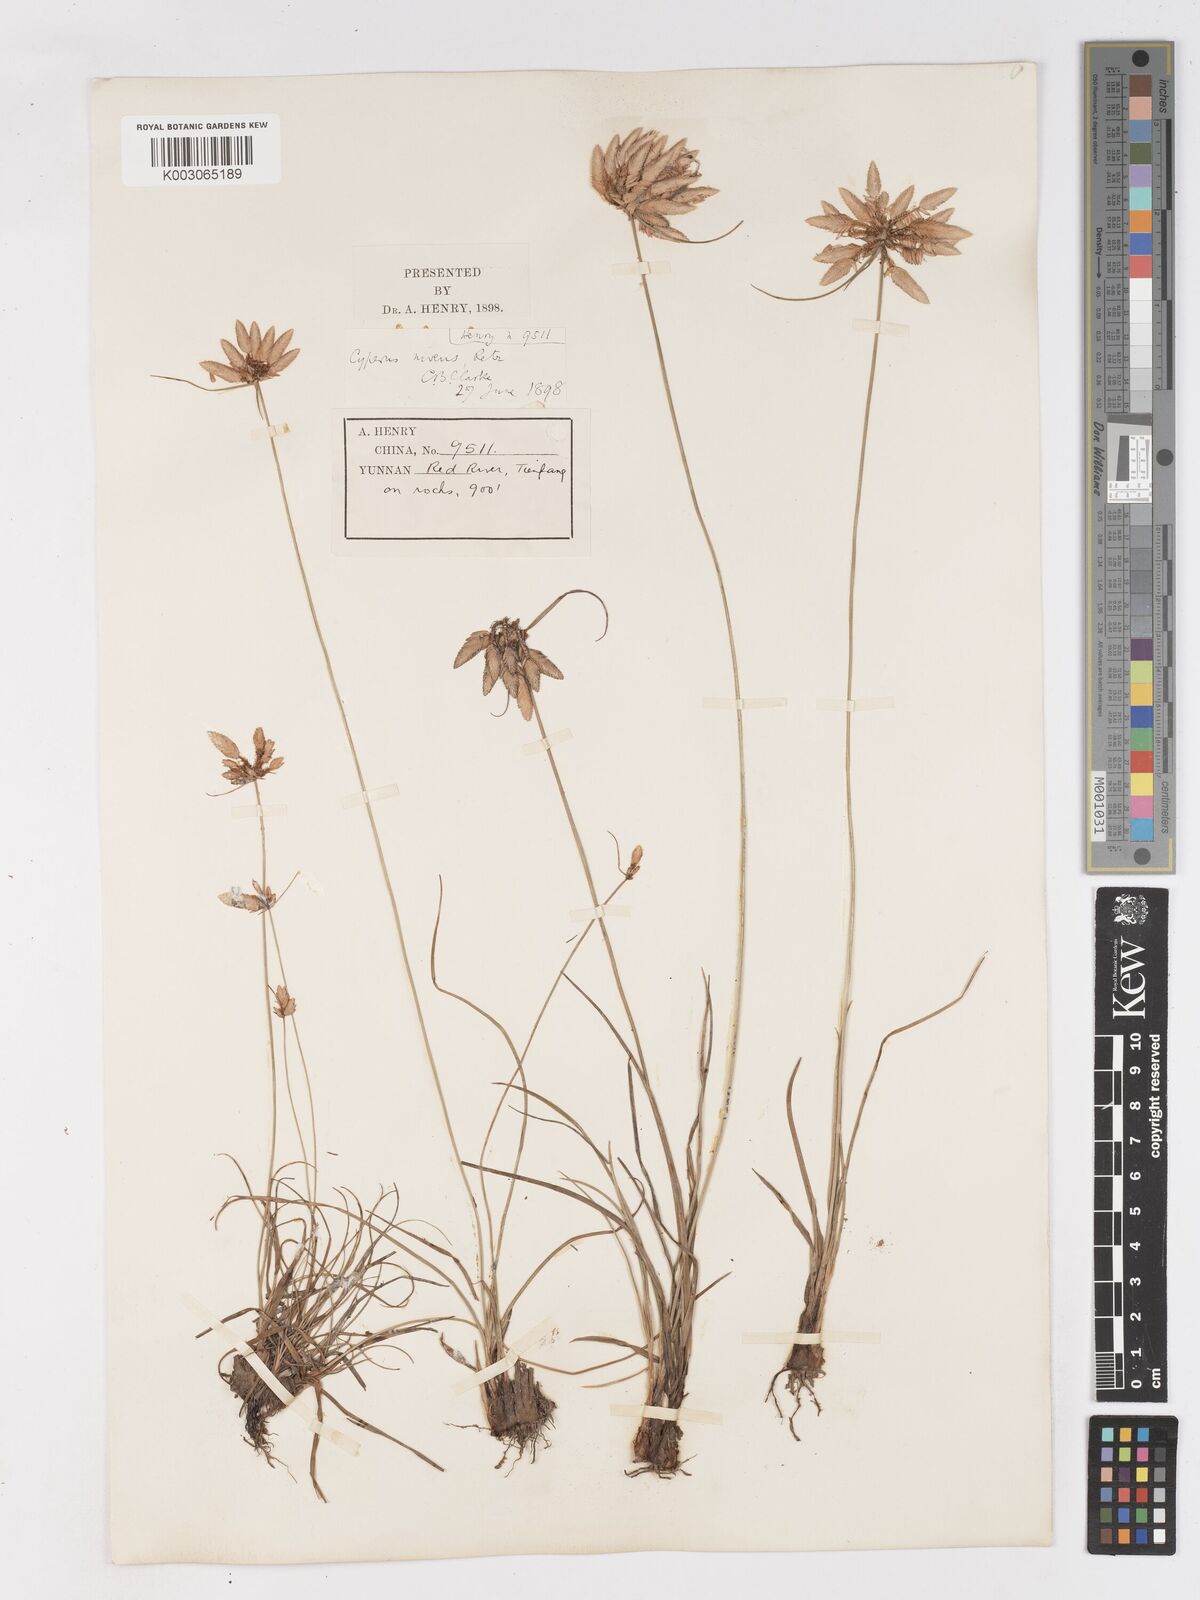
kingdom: Plantae
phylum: Tracheophyta
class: Liliopsida
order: Poales
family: Cyperaceae
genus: Cyperus
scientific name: Cyperus niveus
